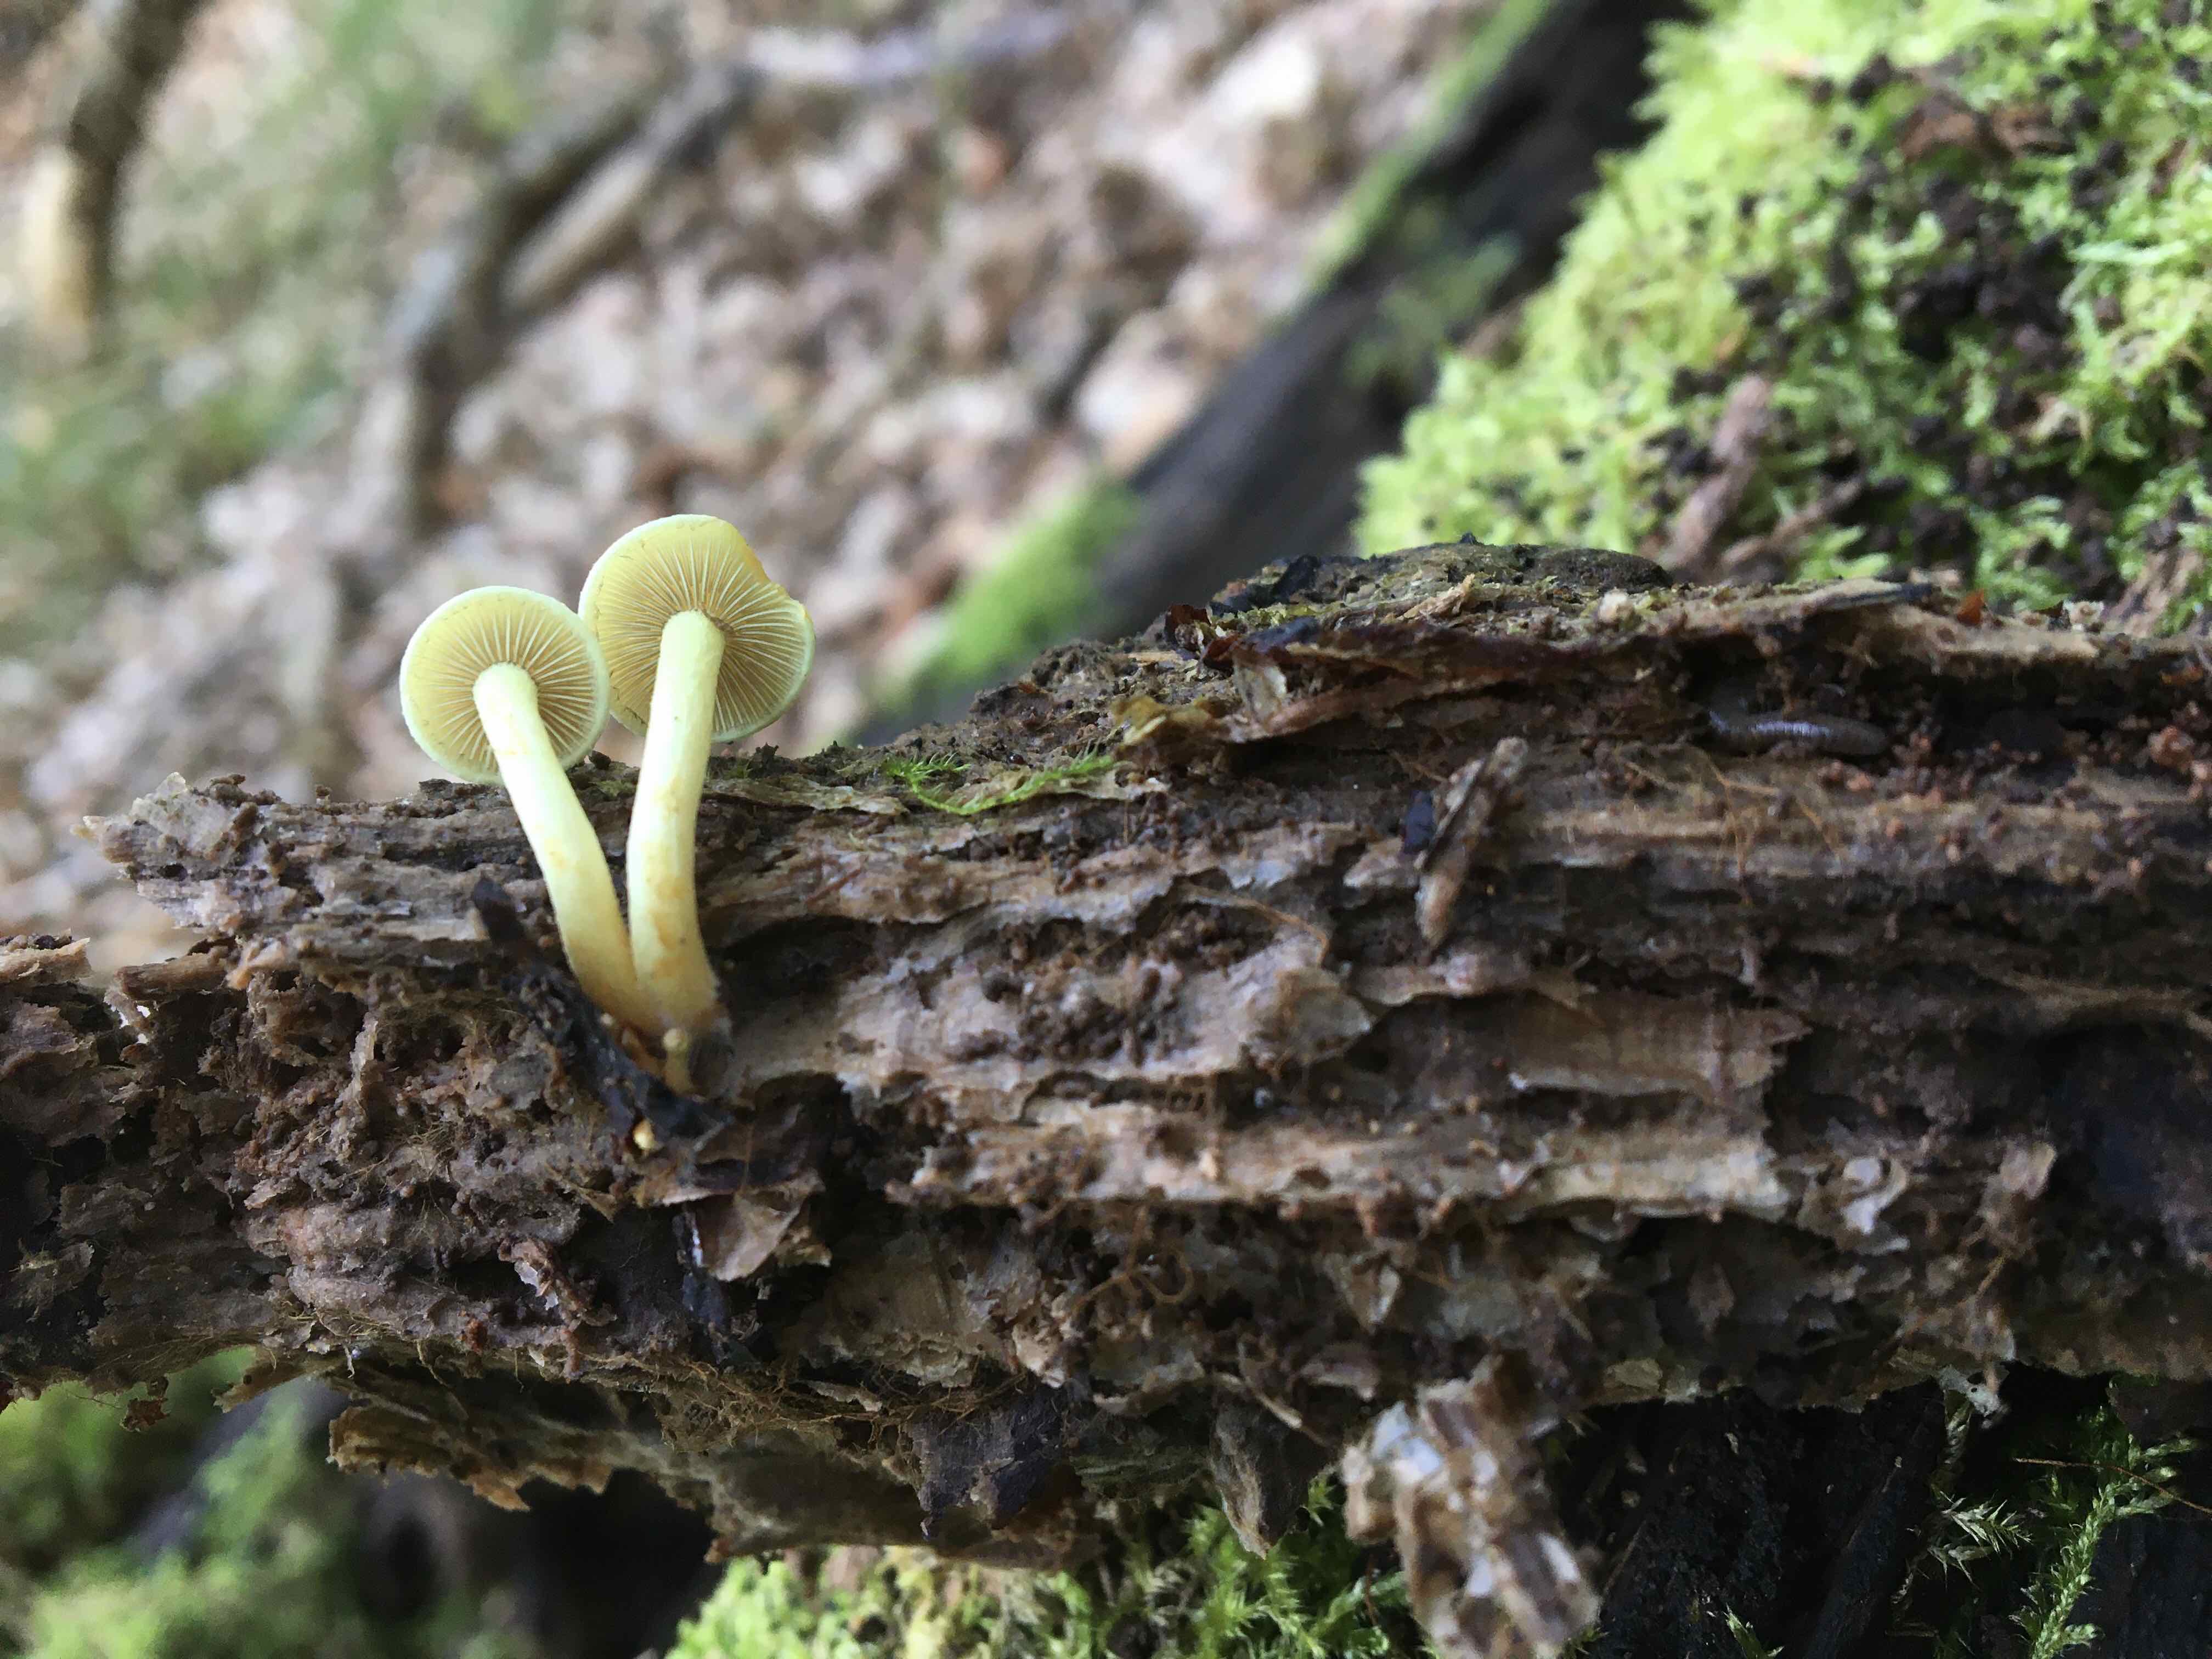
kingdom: Fungi
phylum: Basidiomycota
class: Agaricomycetes
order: Agaricales
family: Strophariaceae
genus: Hypholoma
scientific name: Hypholoma fasciculare
